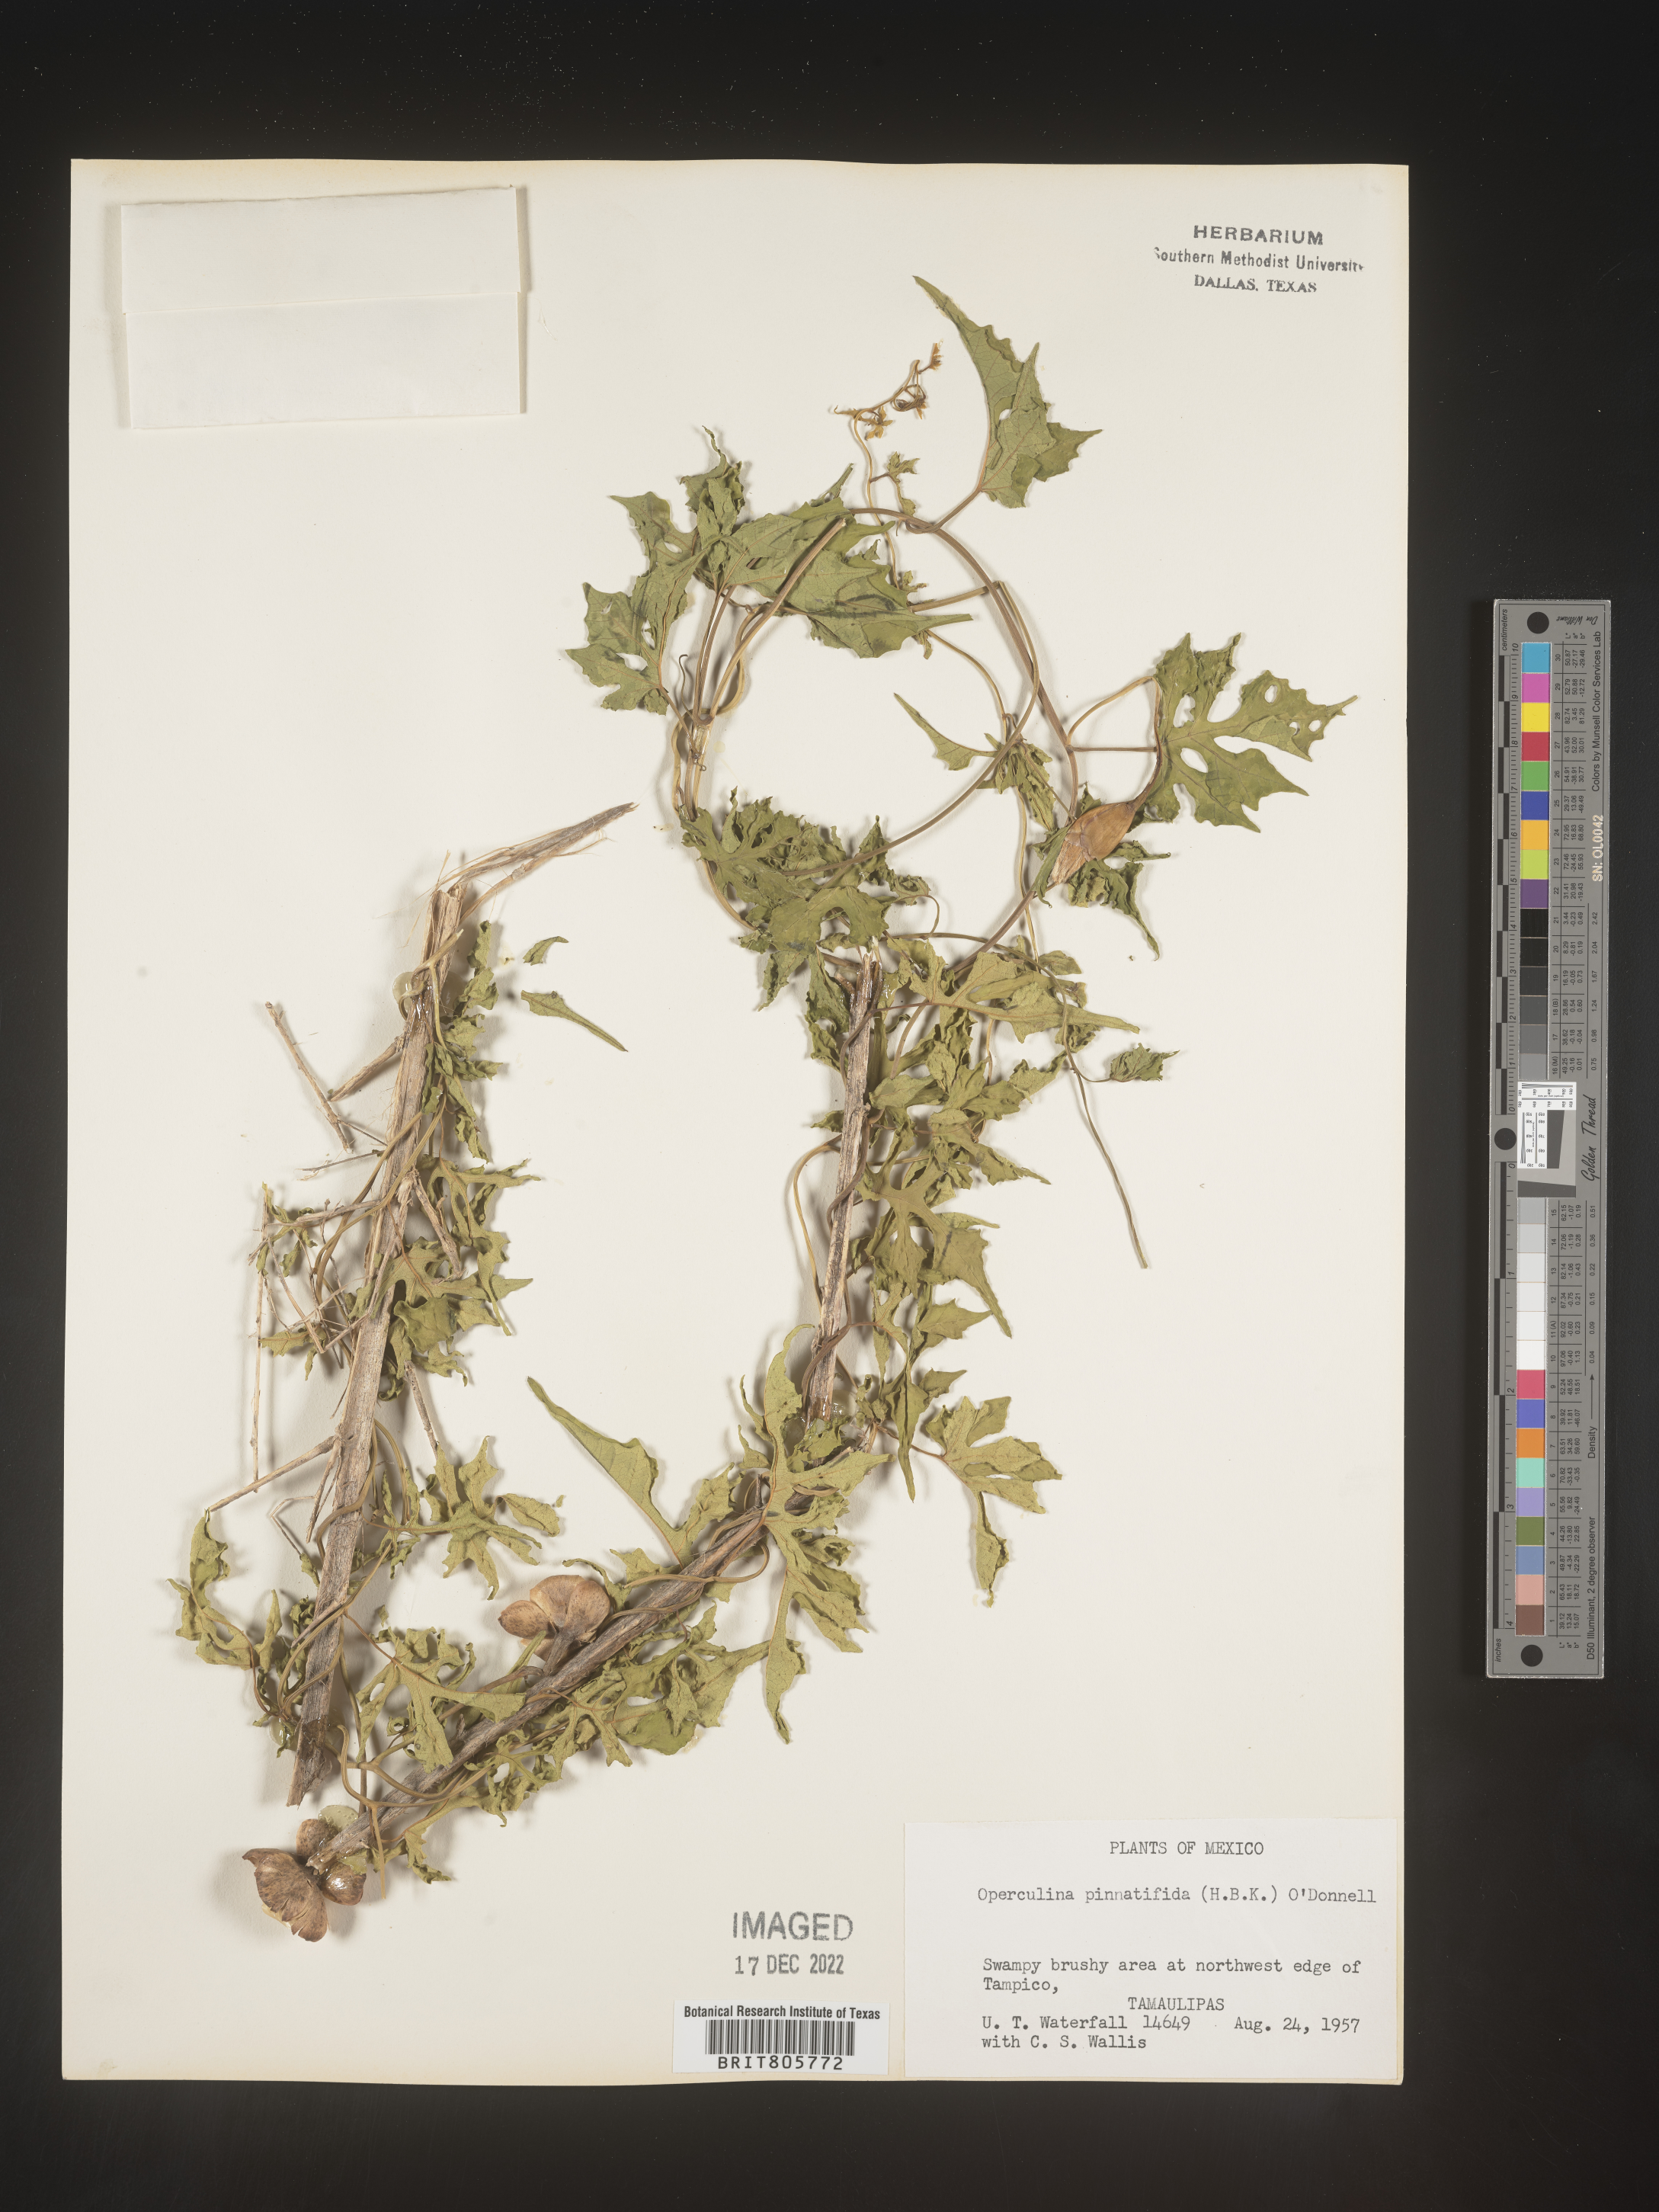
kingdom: Plantae
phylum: Tracheophyta
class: Magnoliopsida
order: Solanales
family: Convolvulaceae
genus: Operculina
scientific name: Operculina
